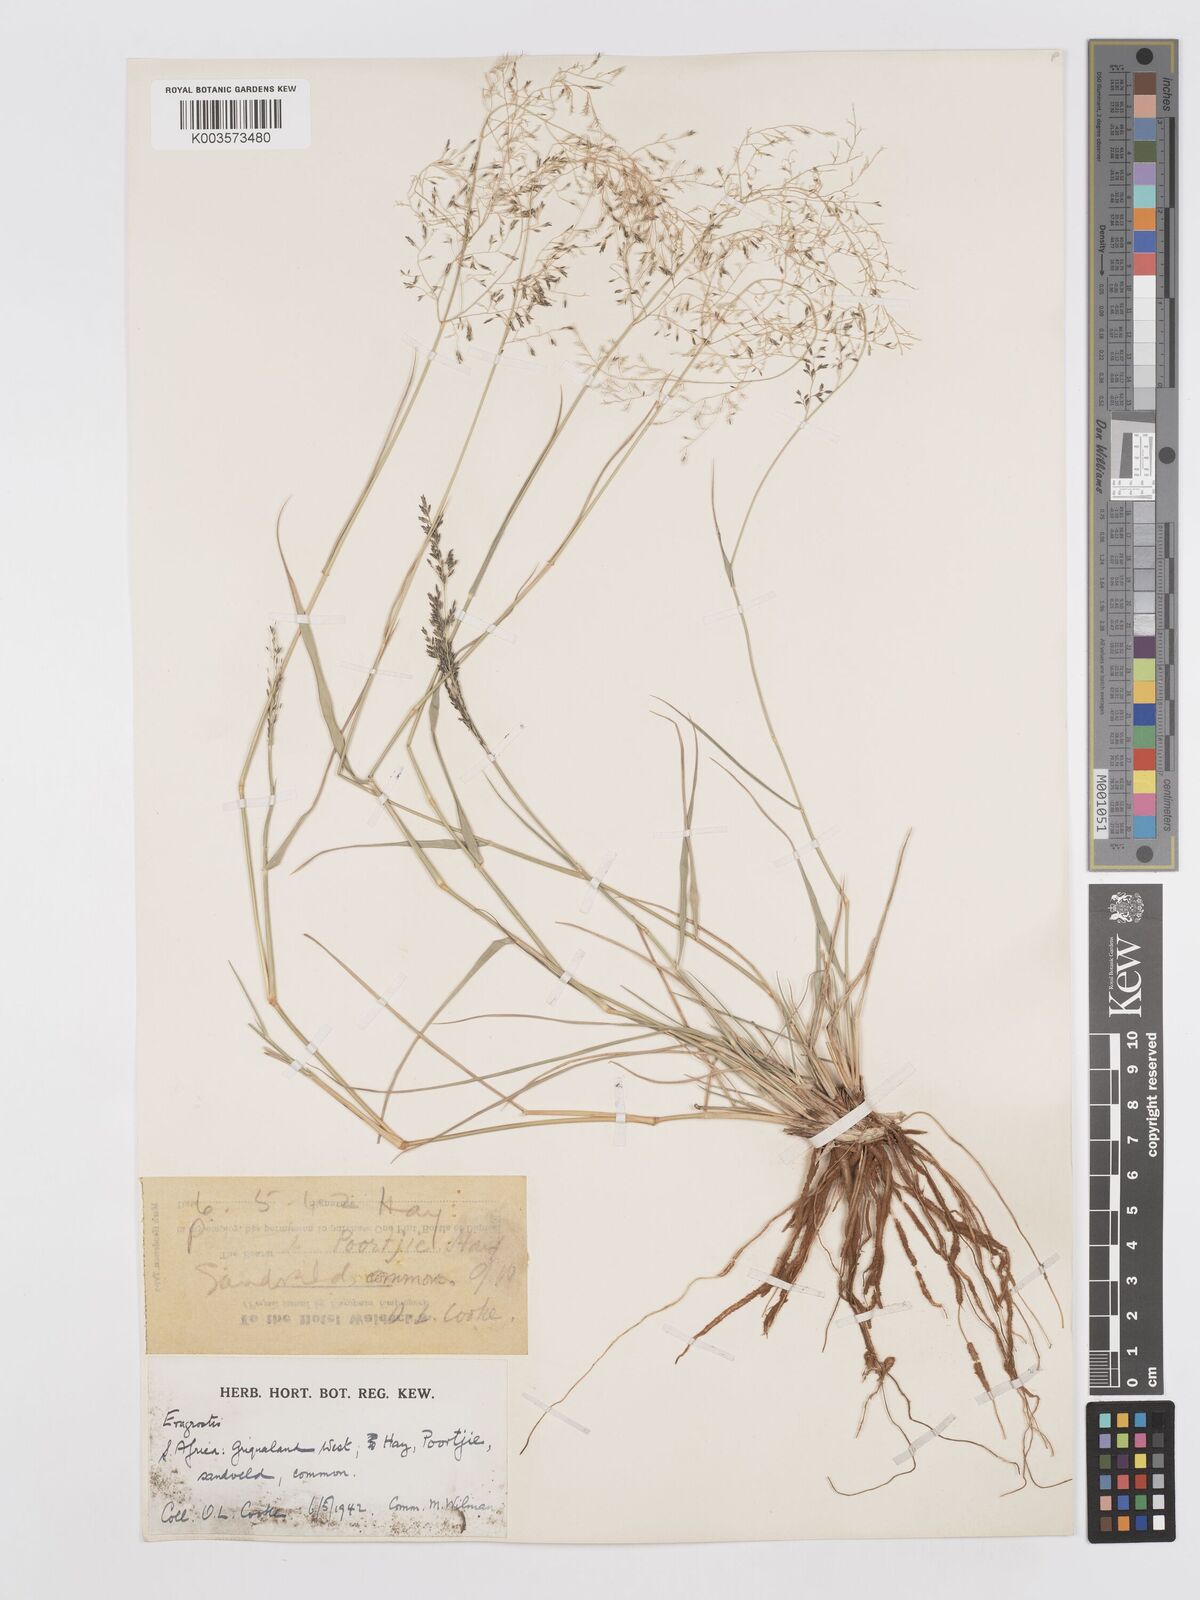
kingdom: Plantae
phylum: Tracheophyta
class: Liliopsida
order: Poales
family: Poaceae
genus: Eragrostis
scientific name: Eragrostis lehmanniana
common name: Lehmann lovegrass
